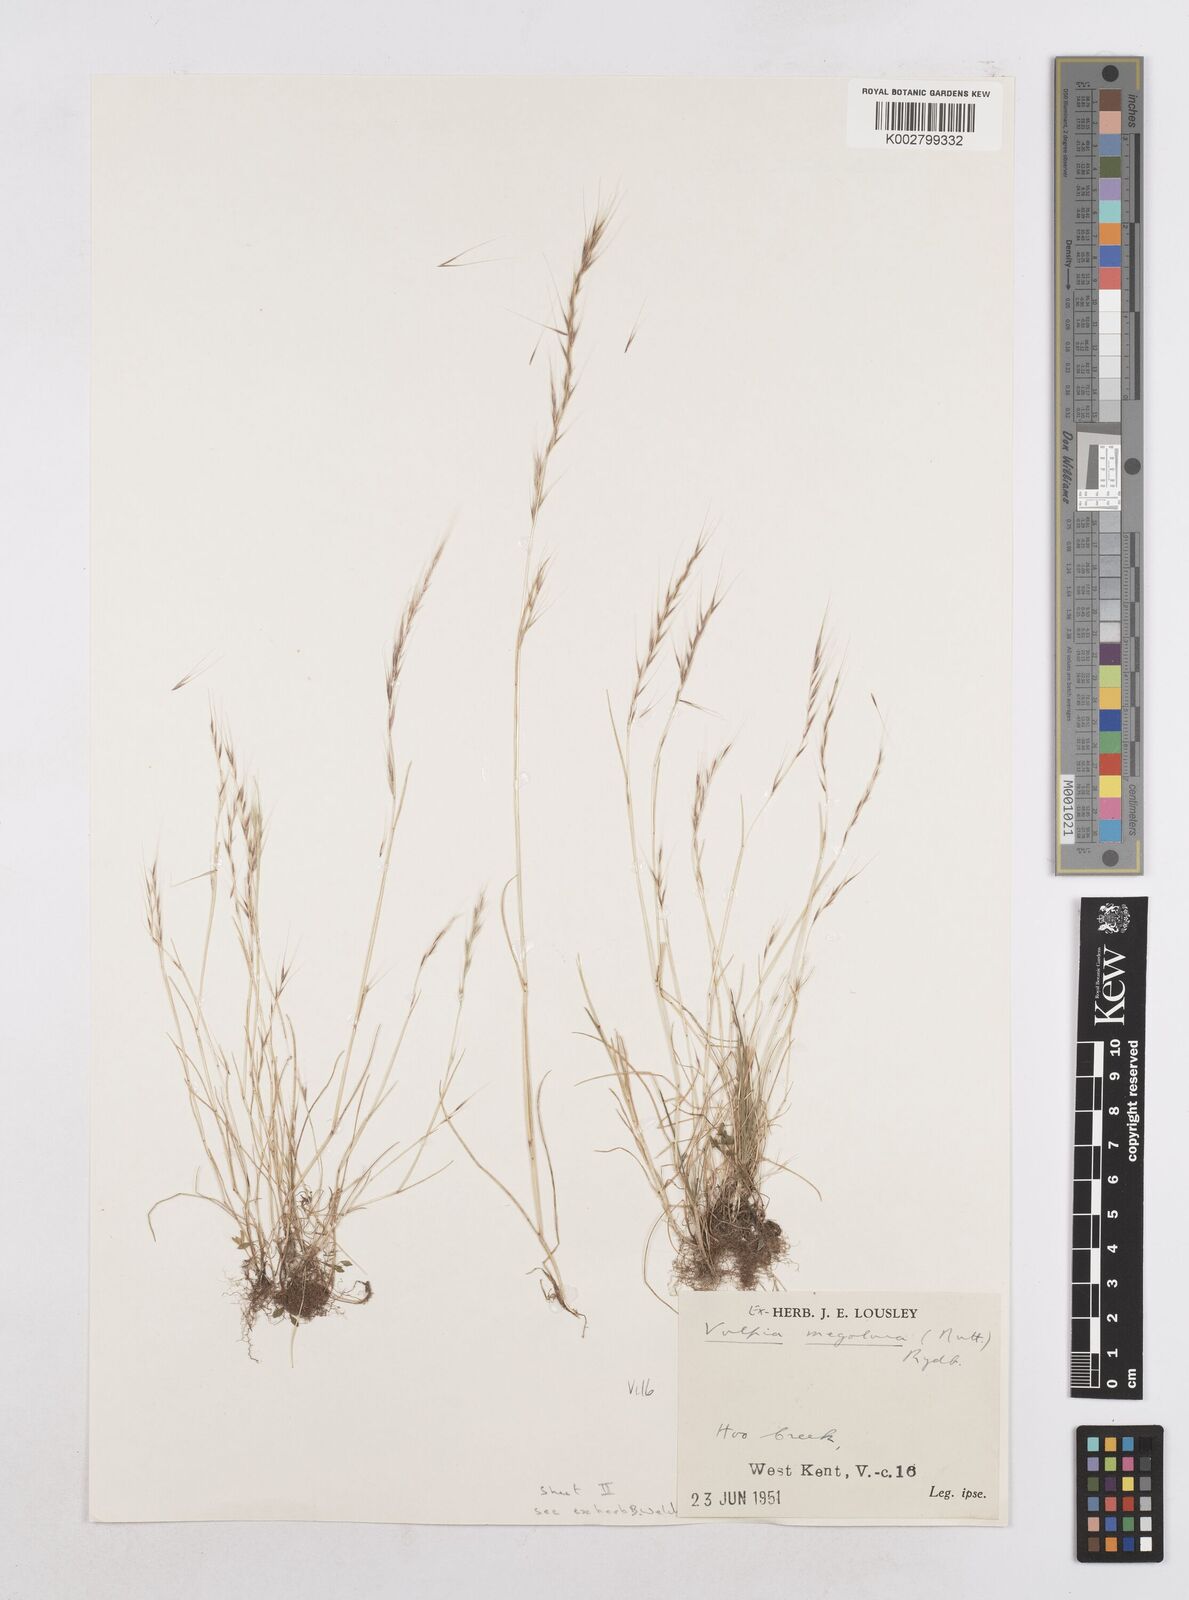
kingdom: Plantae
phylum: Tracheophyta
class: Liliopsida
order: Poales
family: Poaceae
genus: Festuca
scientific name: Festuca myuros
